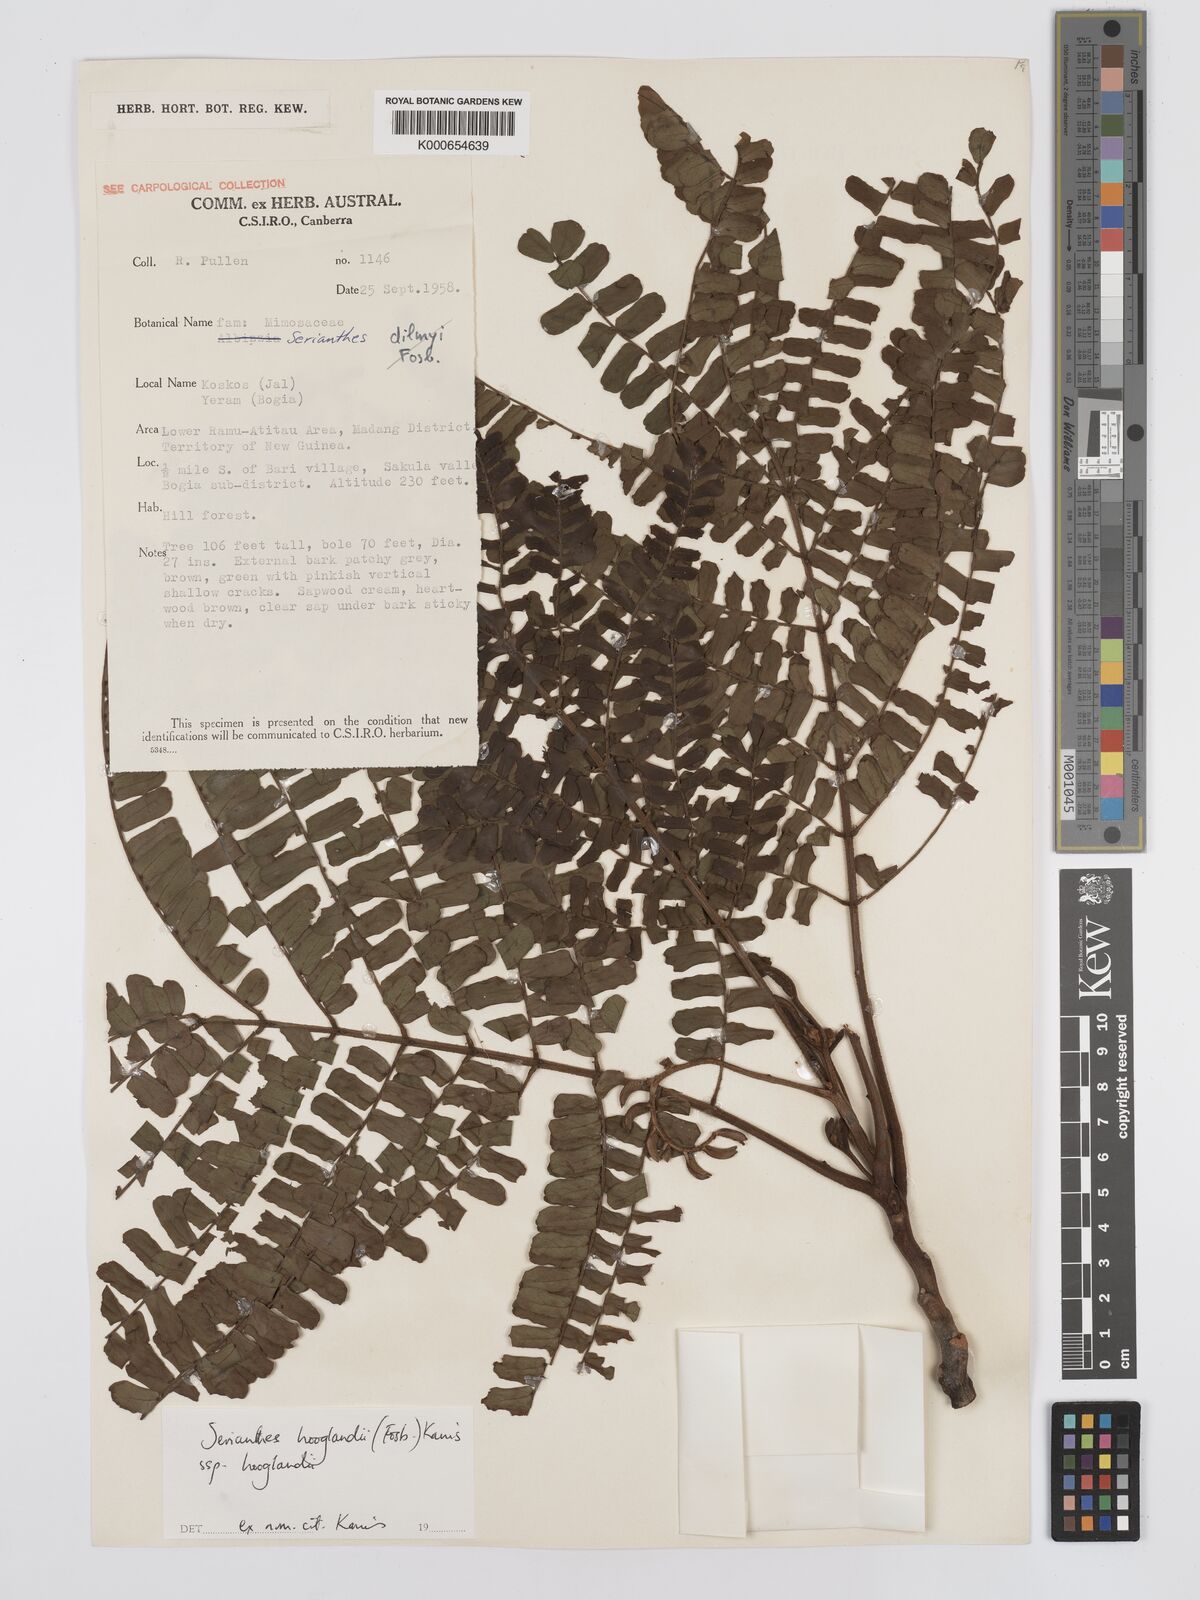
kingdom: Plantae
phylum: Tracheophyta
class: Magnoliopsida
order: Fabales
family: Fabaceae
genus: Serianthes
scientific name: Serianthes hooglandii
